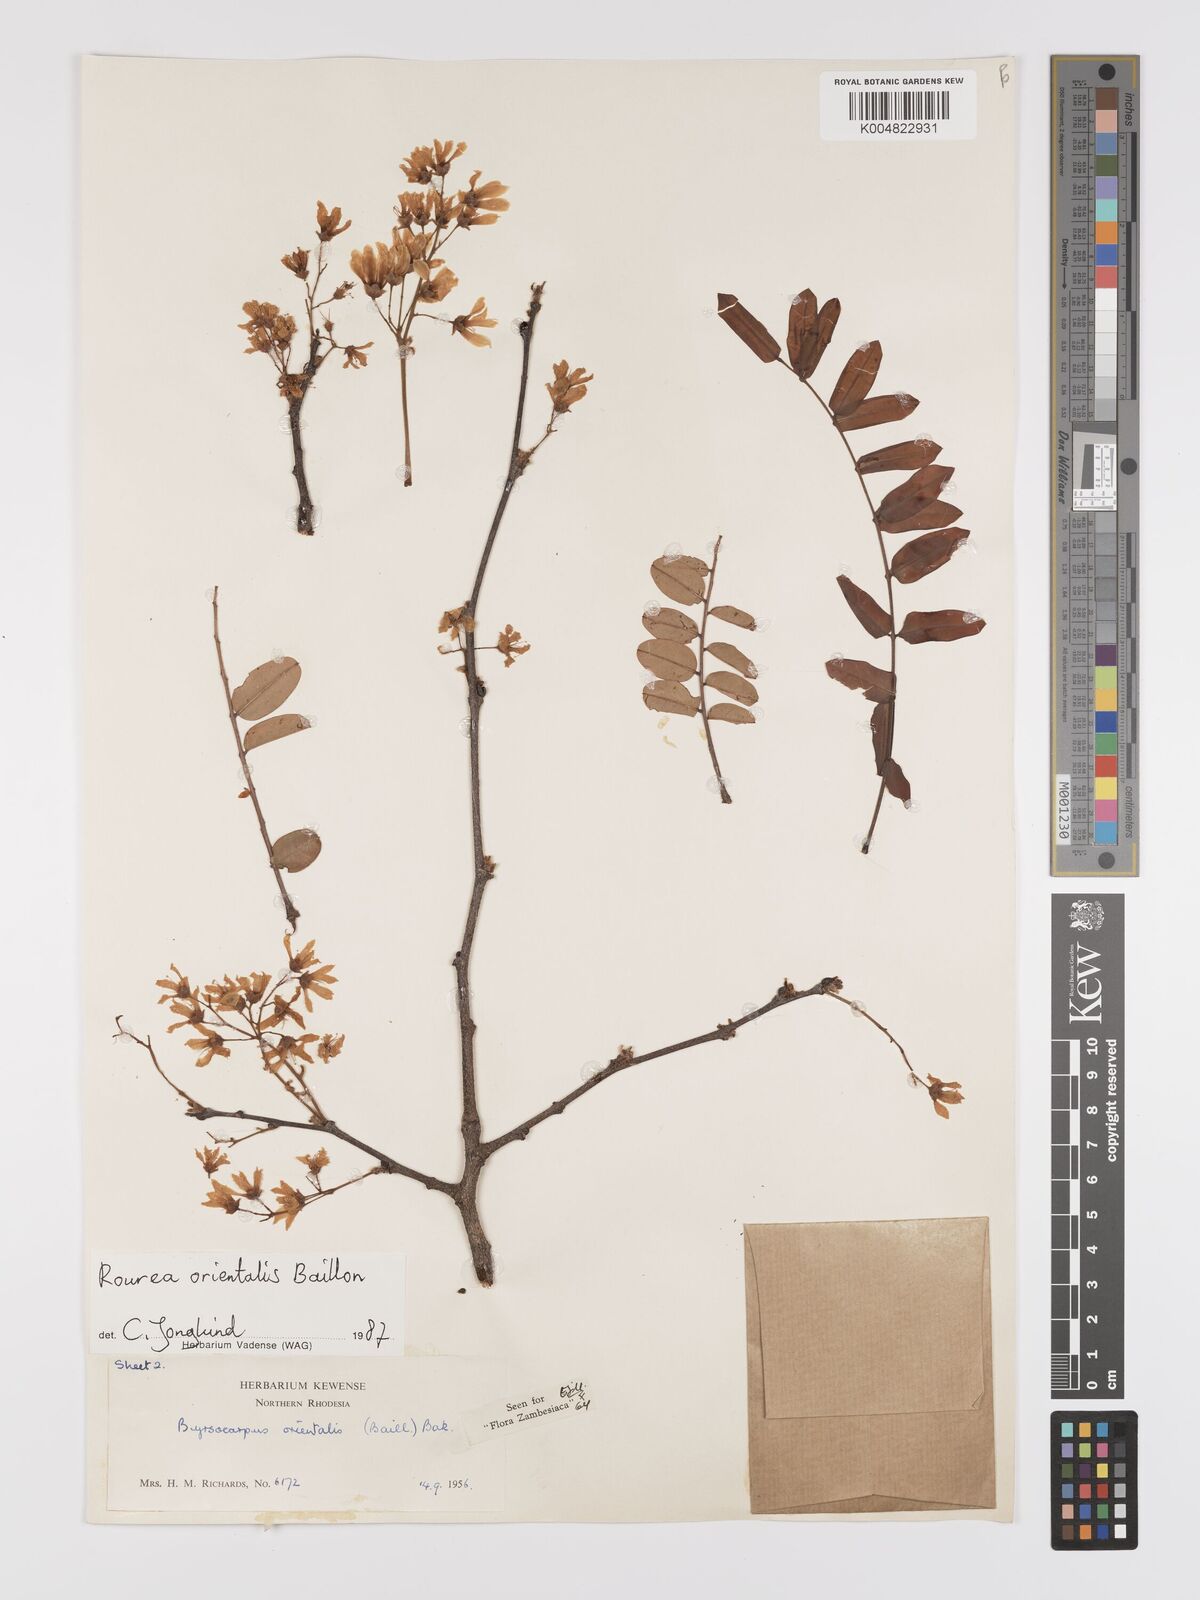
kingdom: Plantae
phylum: Tracheophyta
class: Magnoliopsida
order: Oxalidales
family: Connaraceae
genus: Rourea
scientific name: Rourea orientalis
